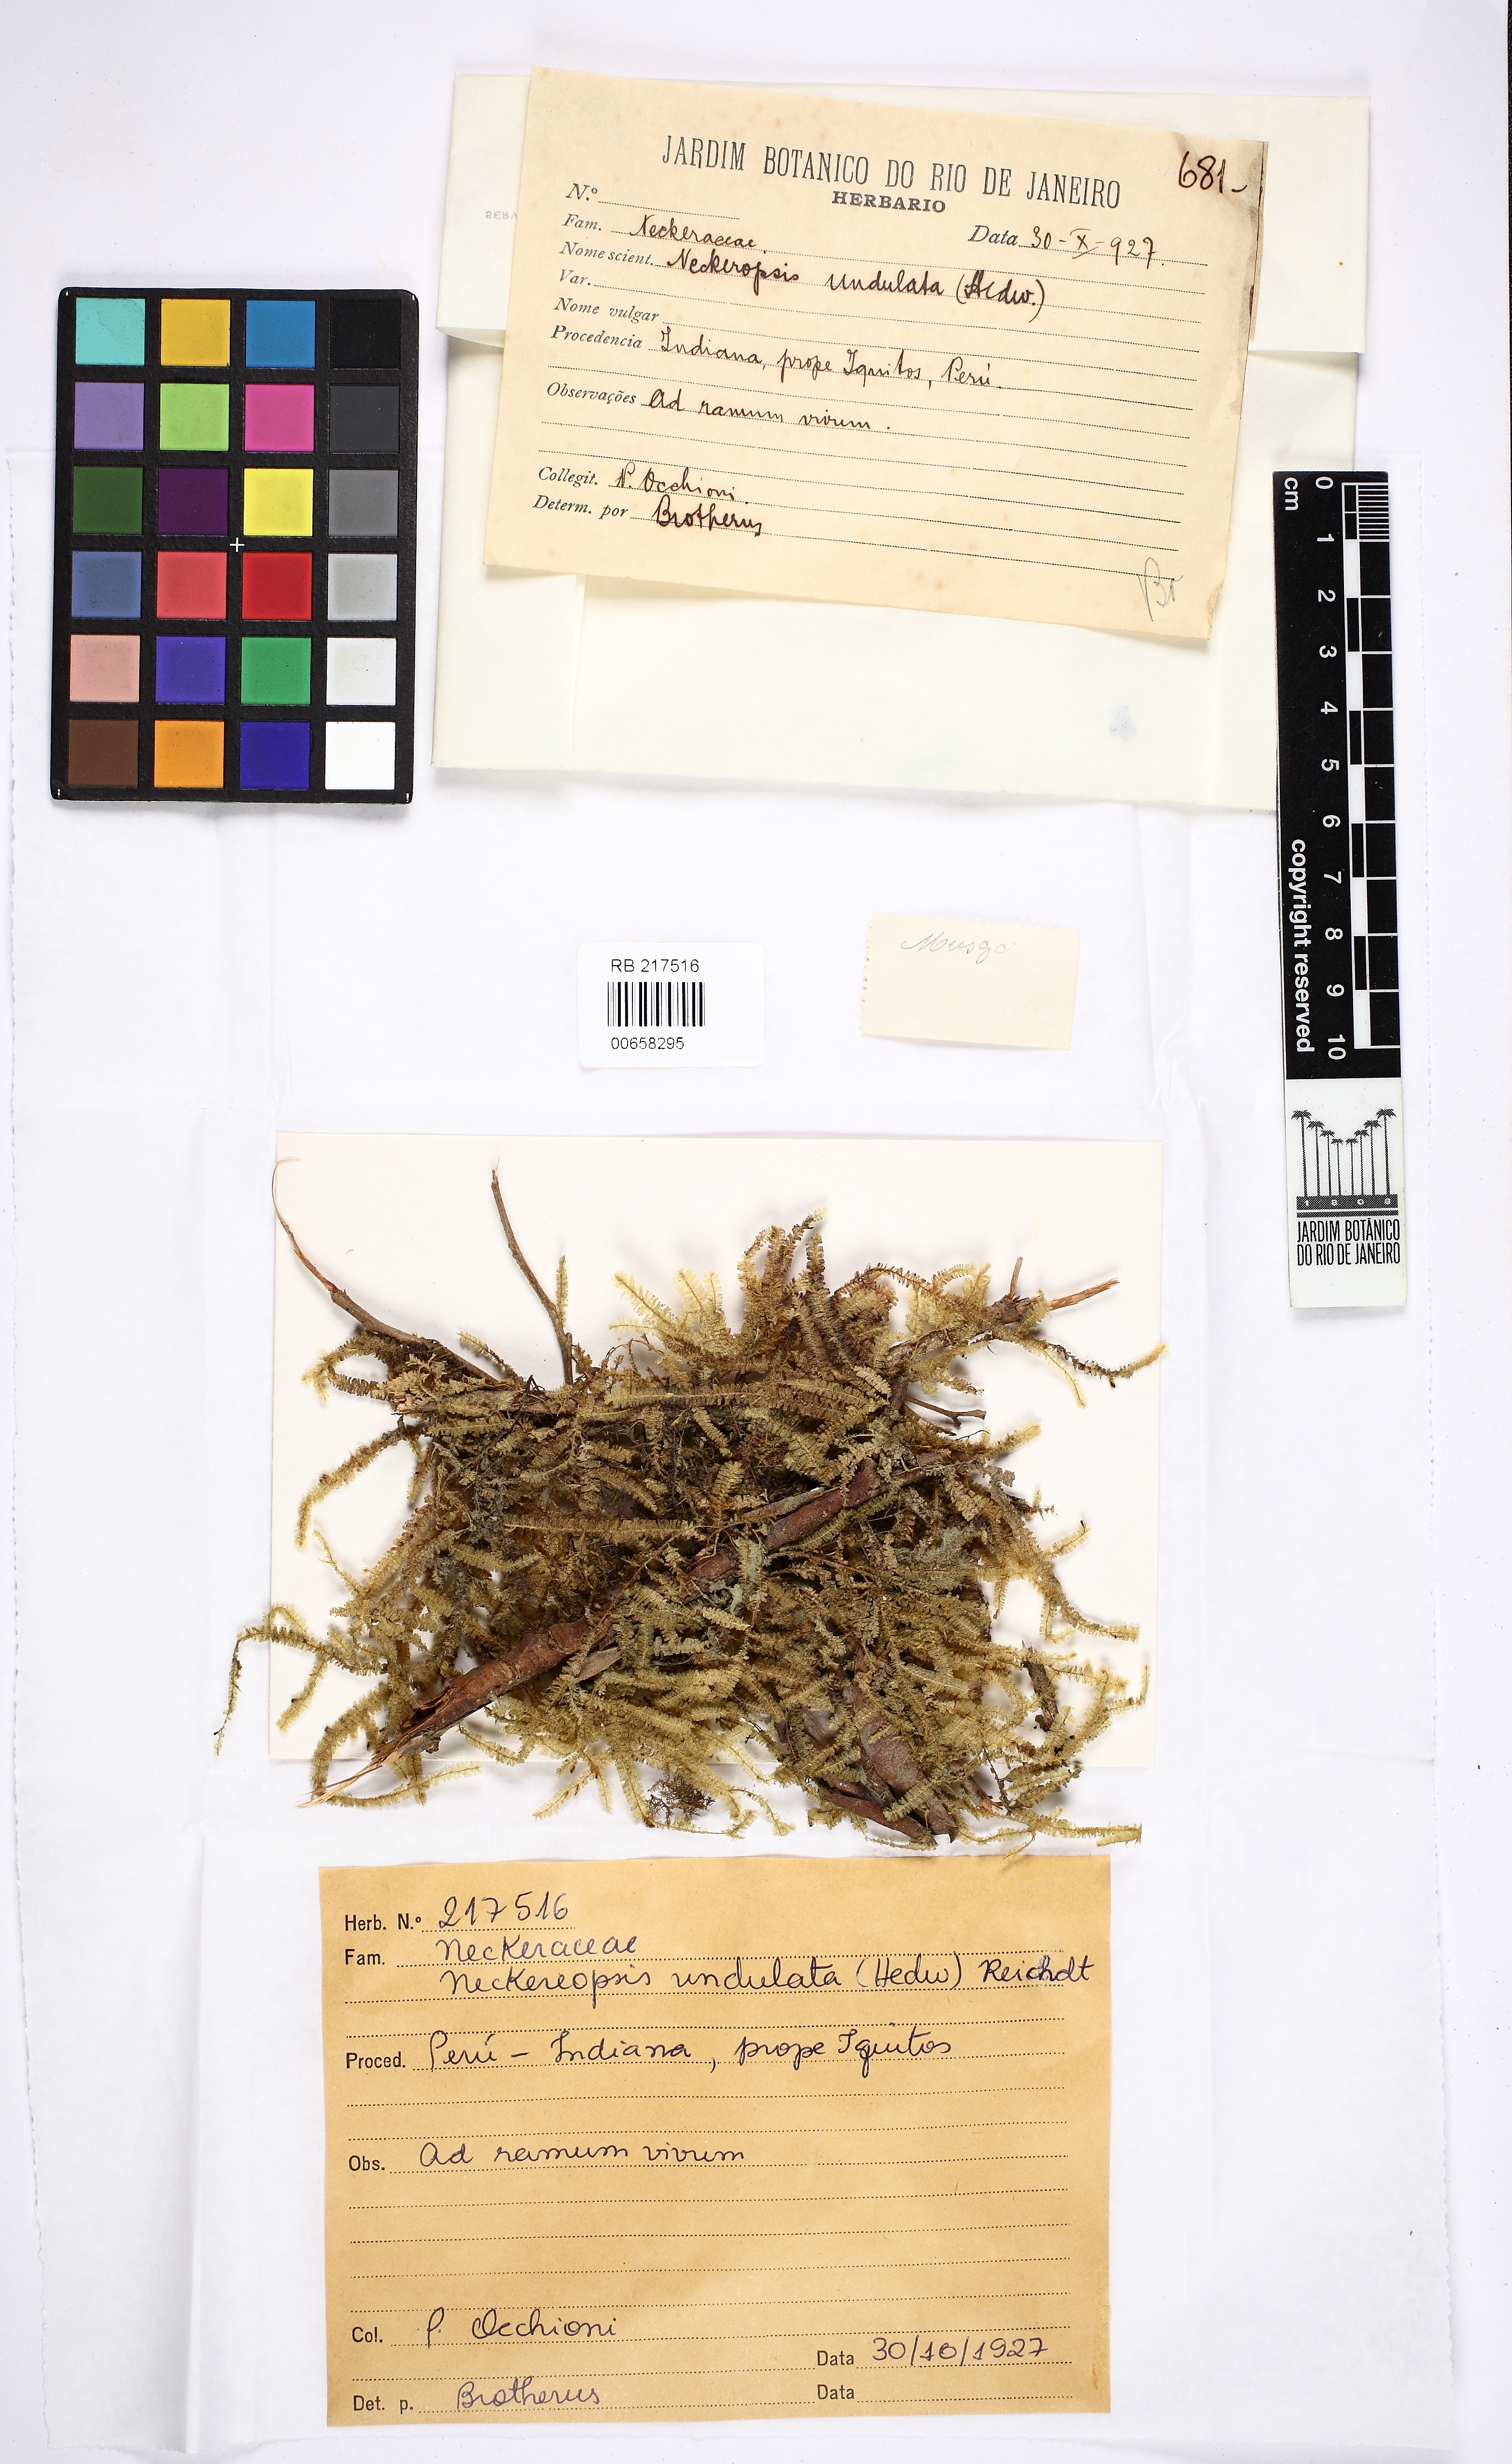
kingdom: Plantae
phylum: Bryophyta
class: Bryopsida
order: Hypnales
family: Neckeraceae
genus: Neckeropsis
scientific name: Neckeropsis undulata
